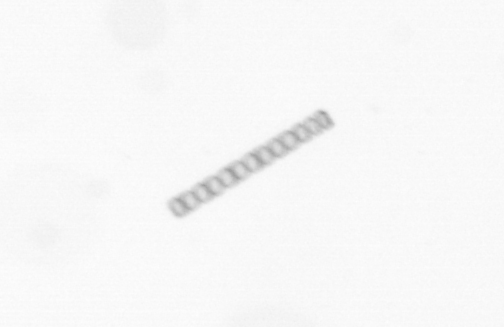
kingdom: Chromista
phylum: Ochrophyta
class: Bacillariophyceae
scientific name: Bacillariophyceae
